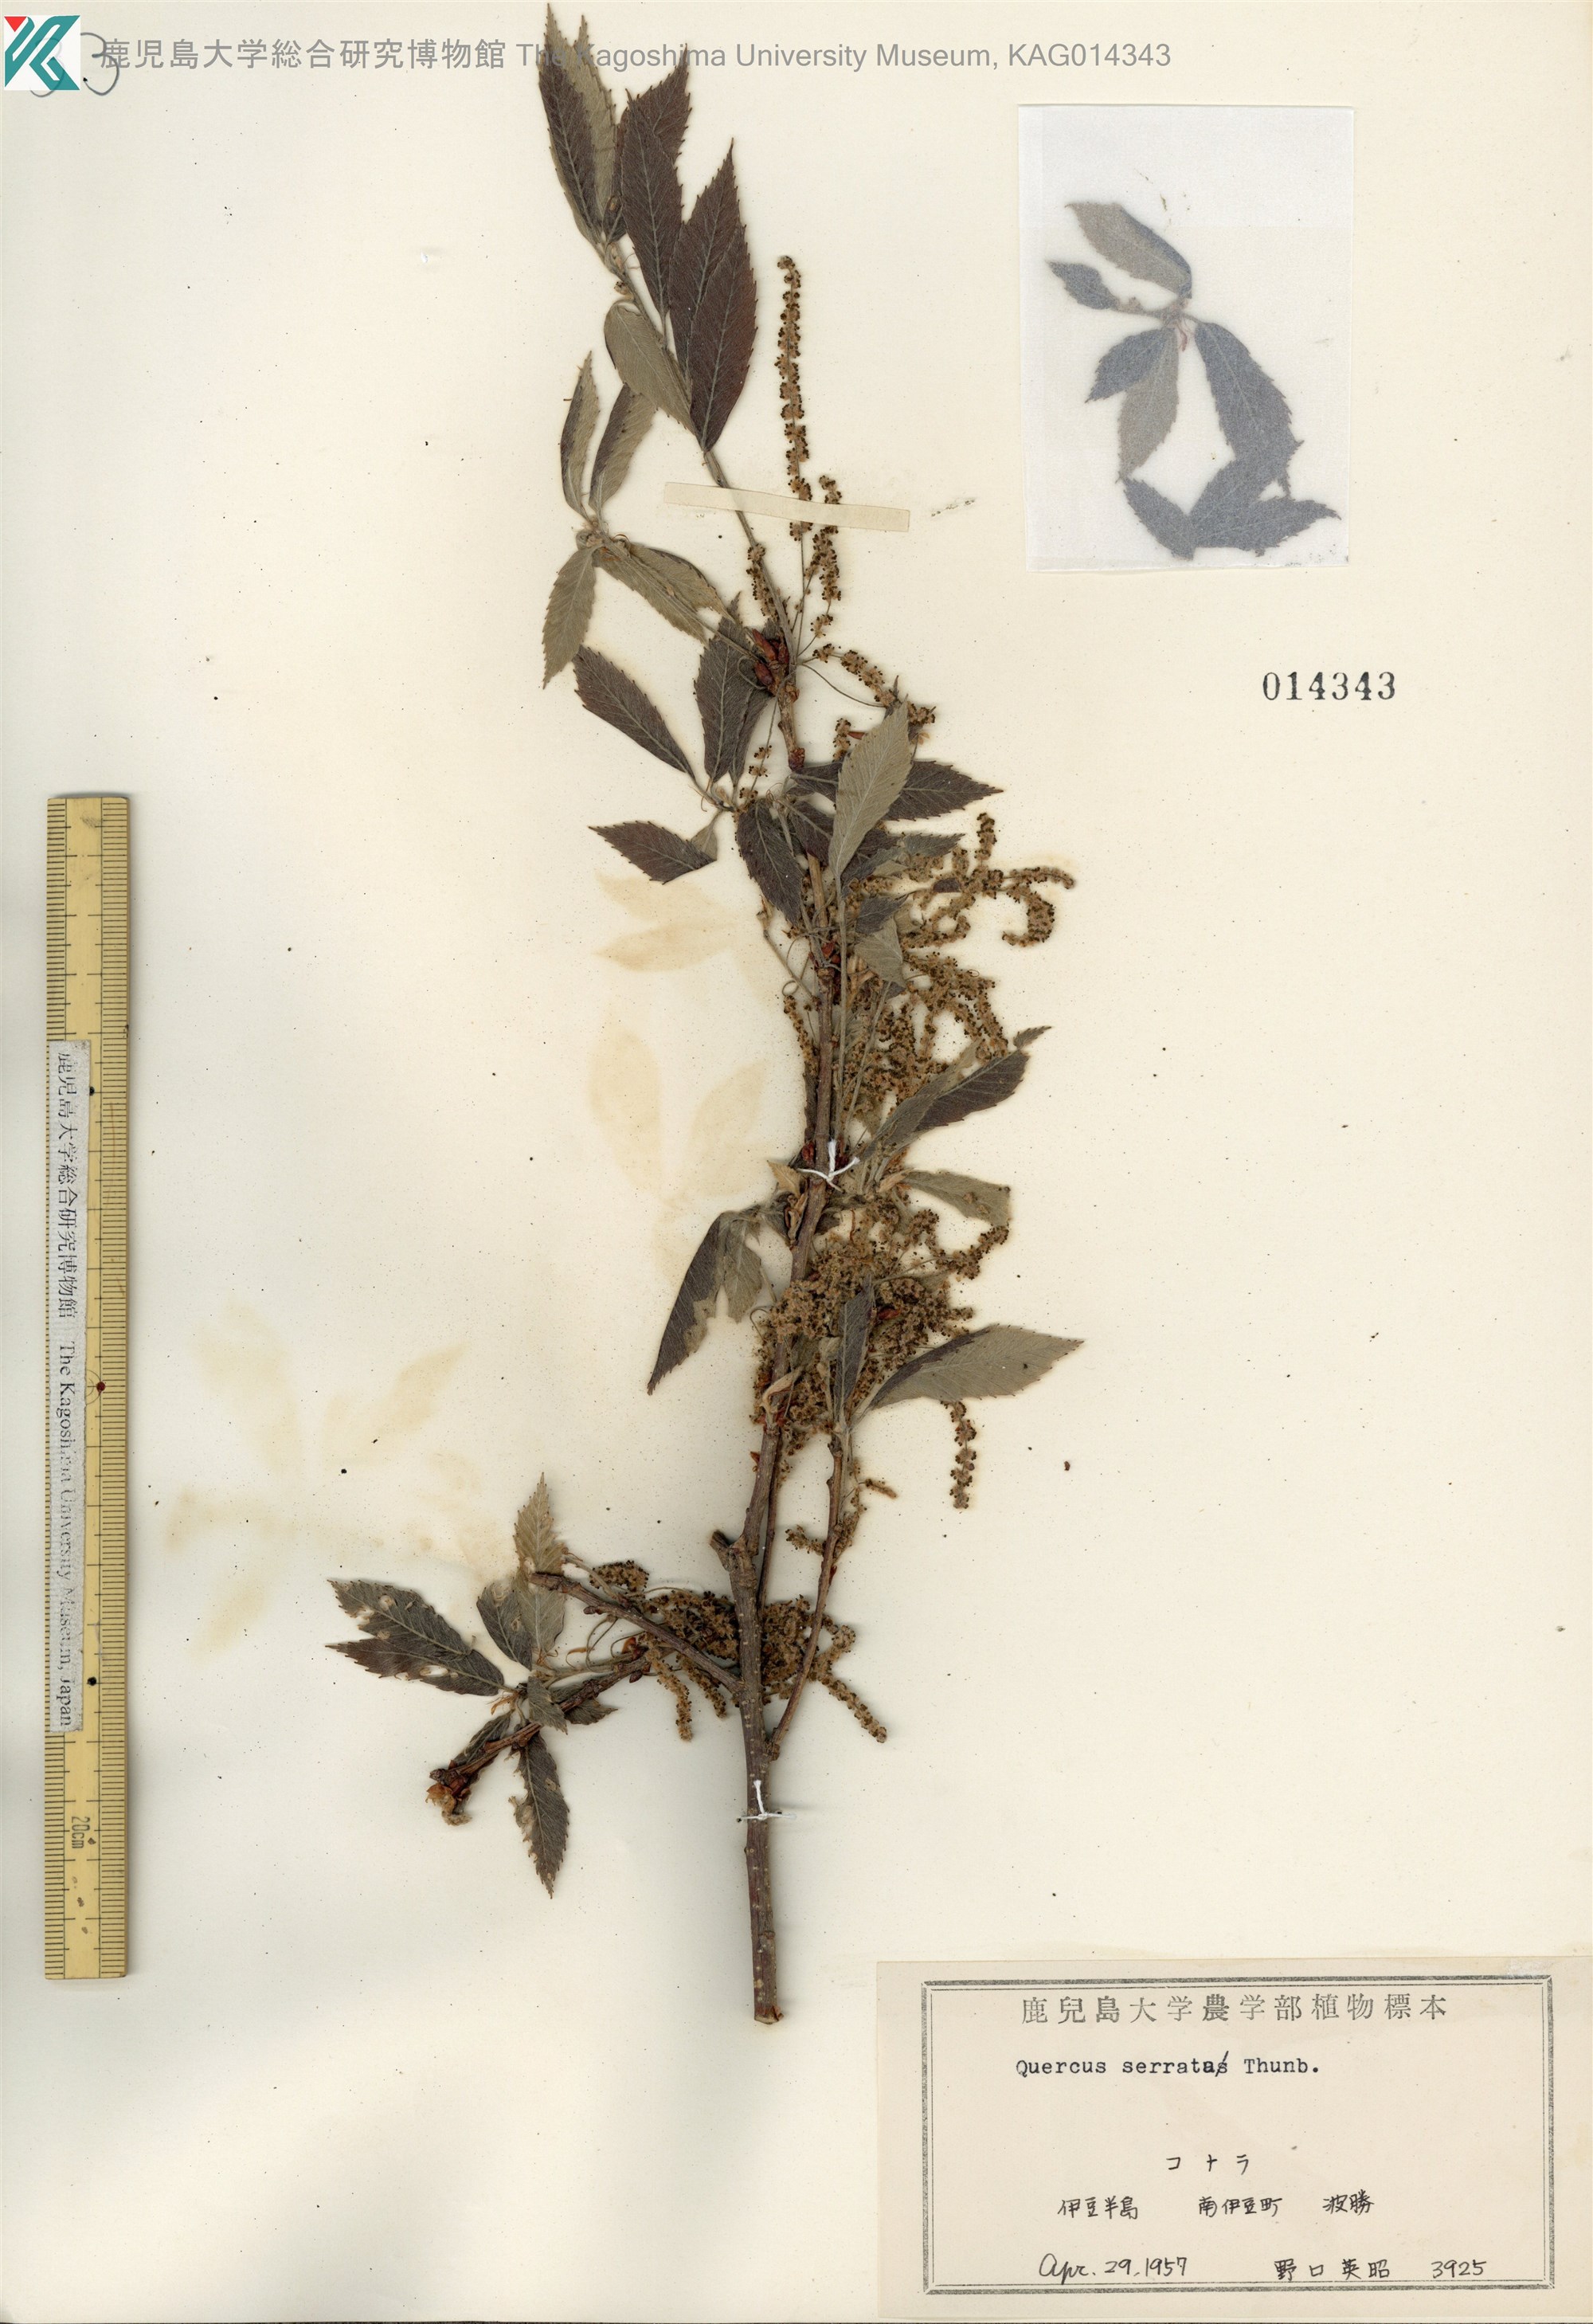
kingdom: Plantae
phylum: Tracheophyta
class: Magnoliopsida
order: Fagales
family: Fagaceae
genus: Quercus
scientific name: Quercus serrata
